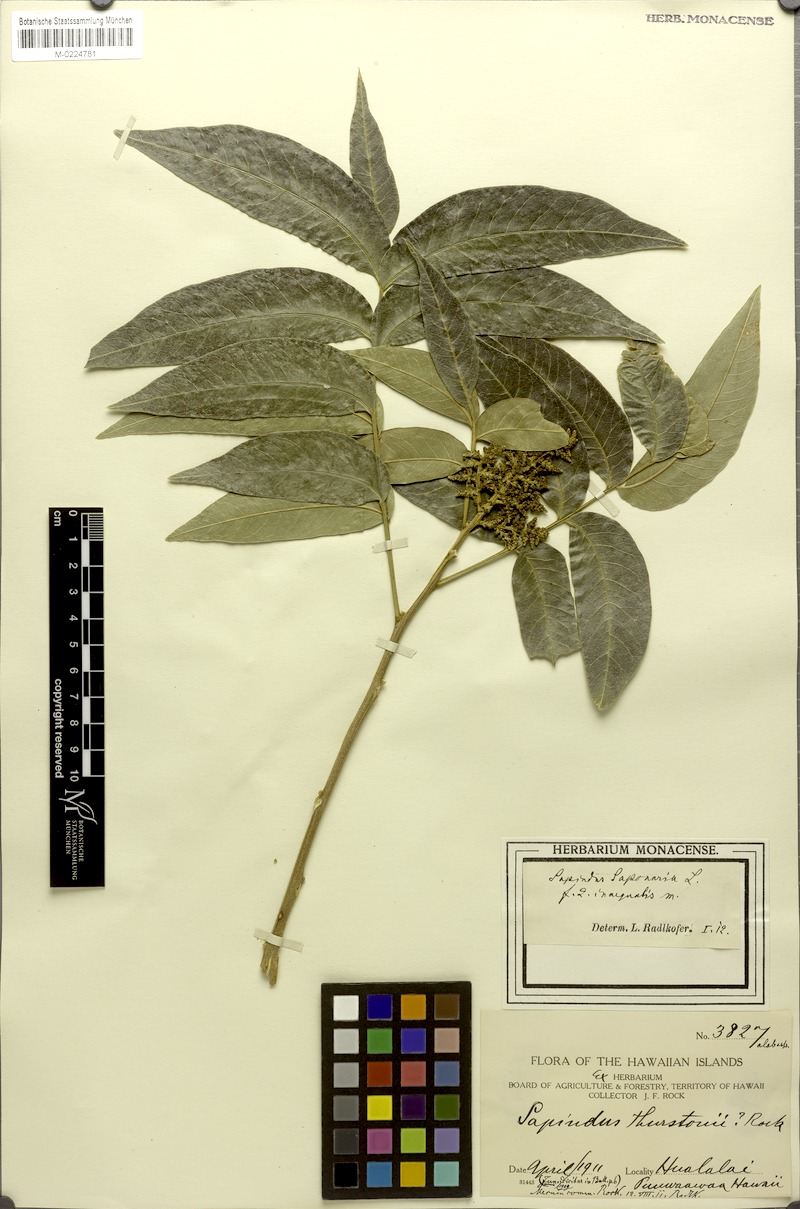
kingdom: Plantae
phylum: Tracheophyta
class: Magnoliopsida
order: Sapindales
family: Sapindaceae
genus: Sapindus
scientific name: Sapindus saponaria
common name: Wingleaf soapberry
